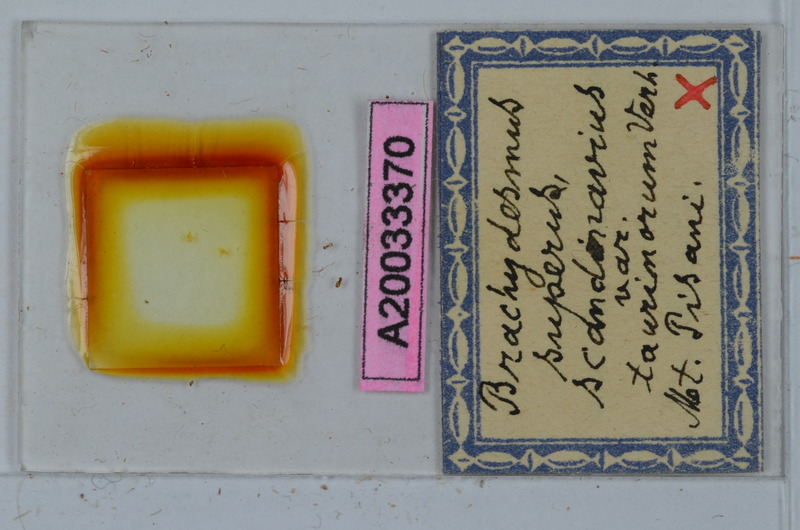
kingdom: Animalia
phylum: Arthropoda
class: Diplopoda
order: Polydesmida
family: Polydesmidae
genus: Brachydesmus
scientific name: Brachydesmus superus
